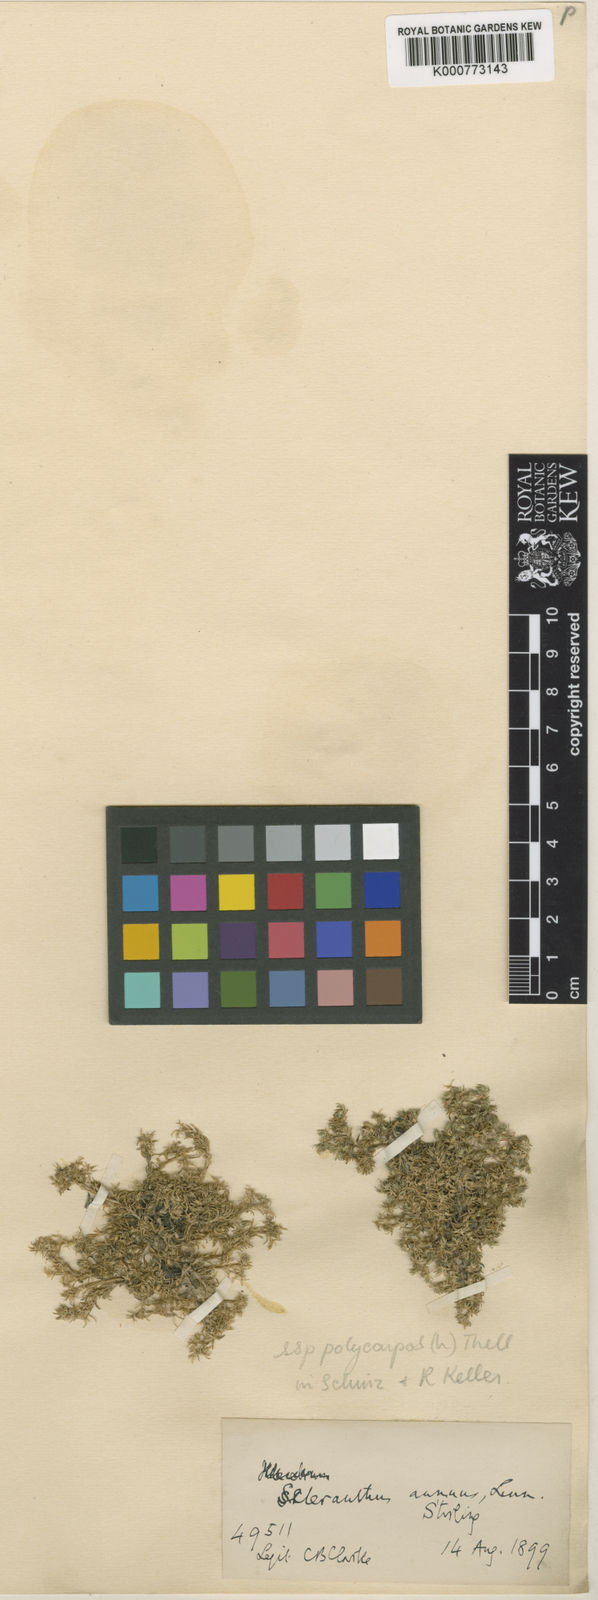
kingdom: Plantae
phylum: Tracheophyta
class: Magnoliopsida
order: Caryophyllales
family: Caryophyllaceae
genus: Scleranthus
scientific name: Scleranthus annuus
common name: Annual knawel
